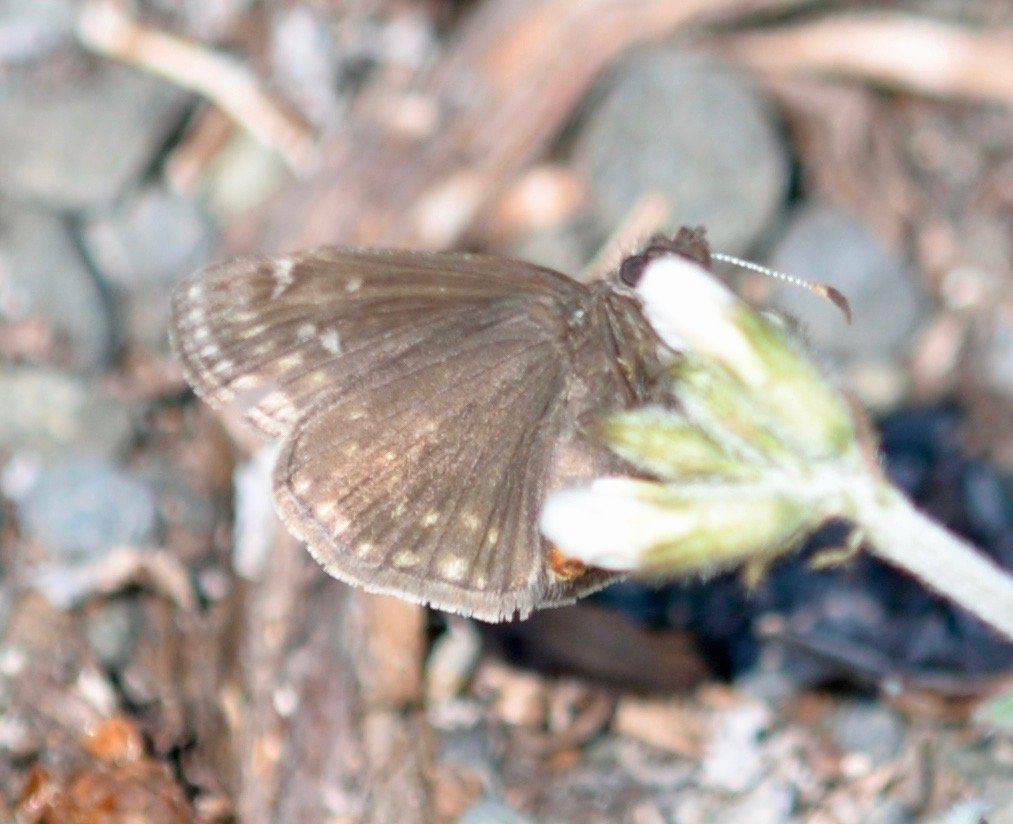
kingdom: Animalia
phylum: Arthropoda
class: Insecta
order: Lepidoptera
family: Hesperiidae
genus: Gesta
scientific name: Gesta
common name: Persius Duskywing
